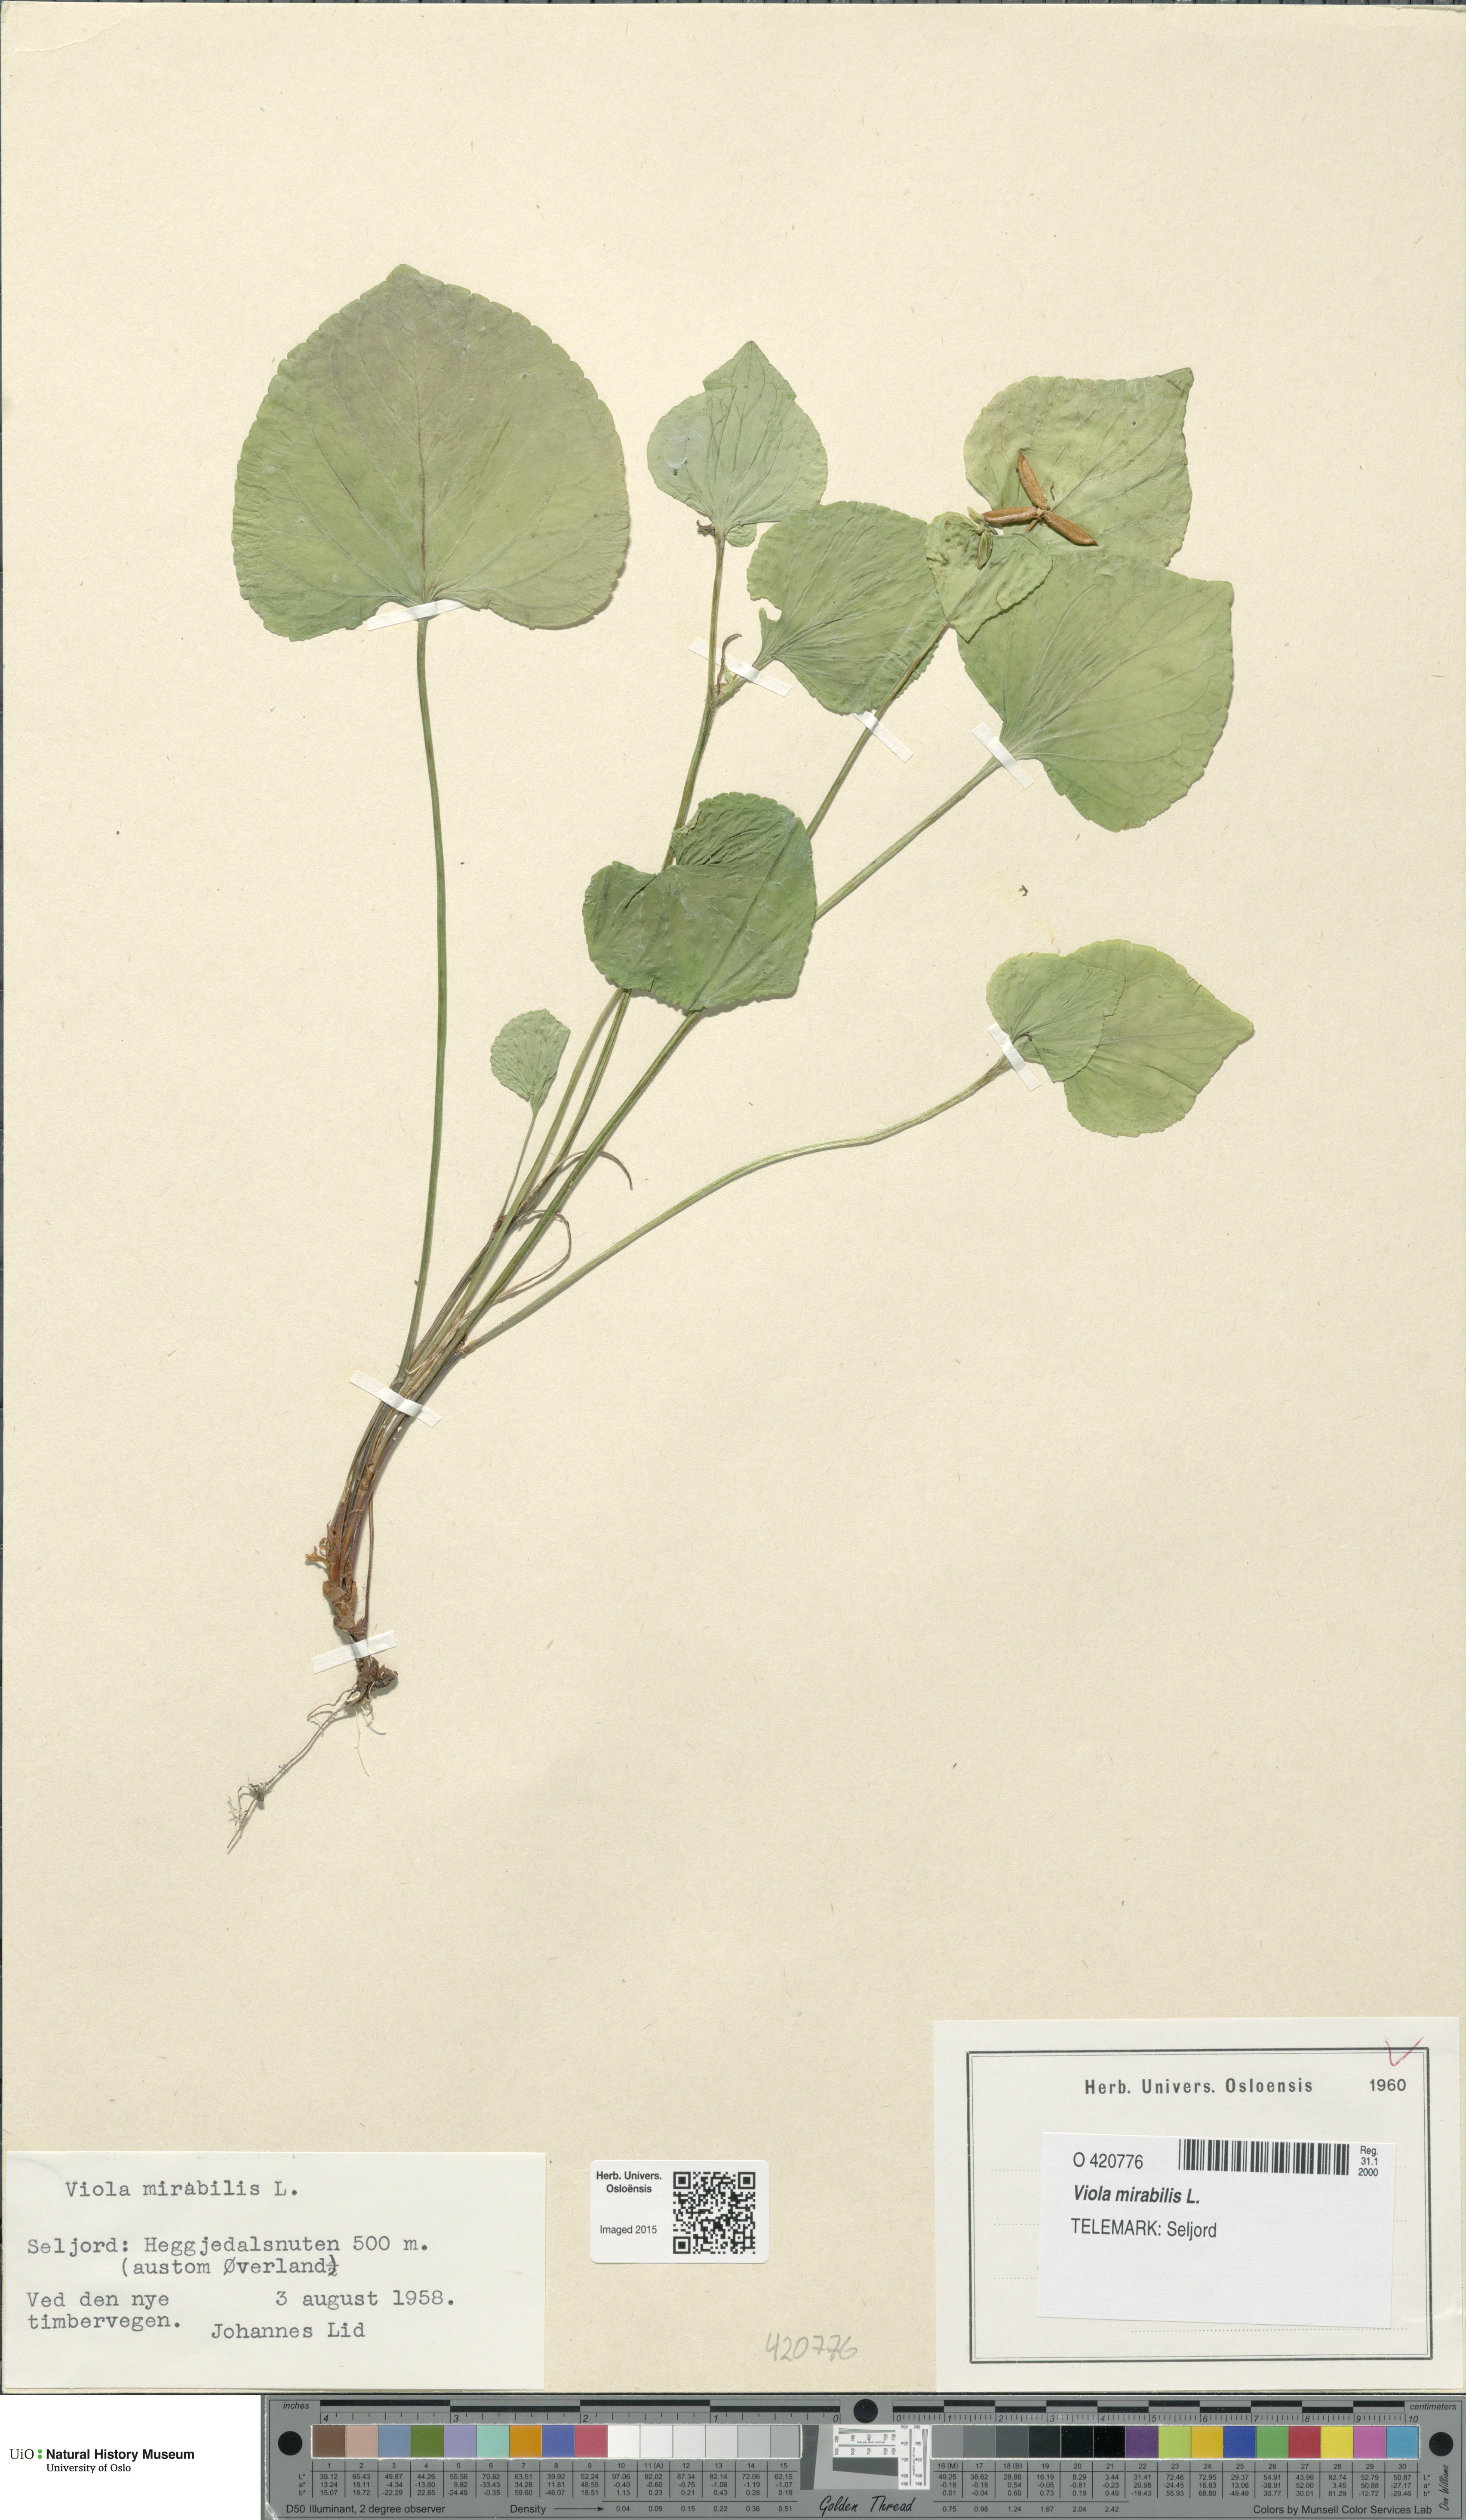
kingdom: Plantae
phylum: Tracheophyta
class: Magnoliopsida
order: Malpighiales
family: Violaceae
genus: Viola
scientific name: Viola mirabilis
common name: Wonder violet
